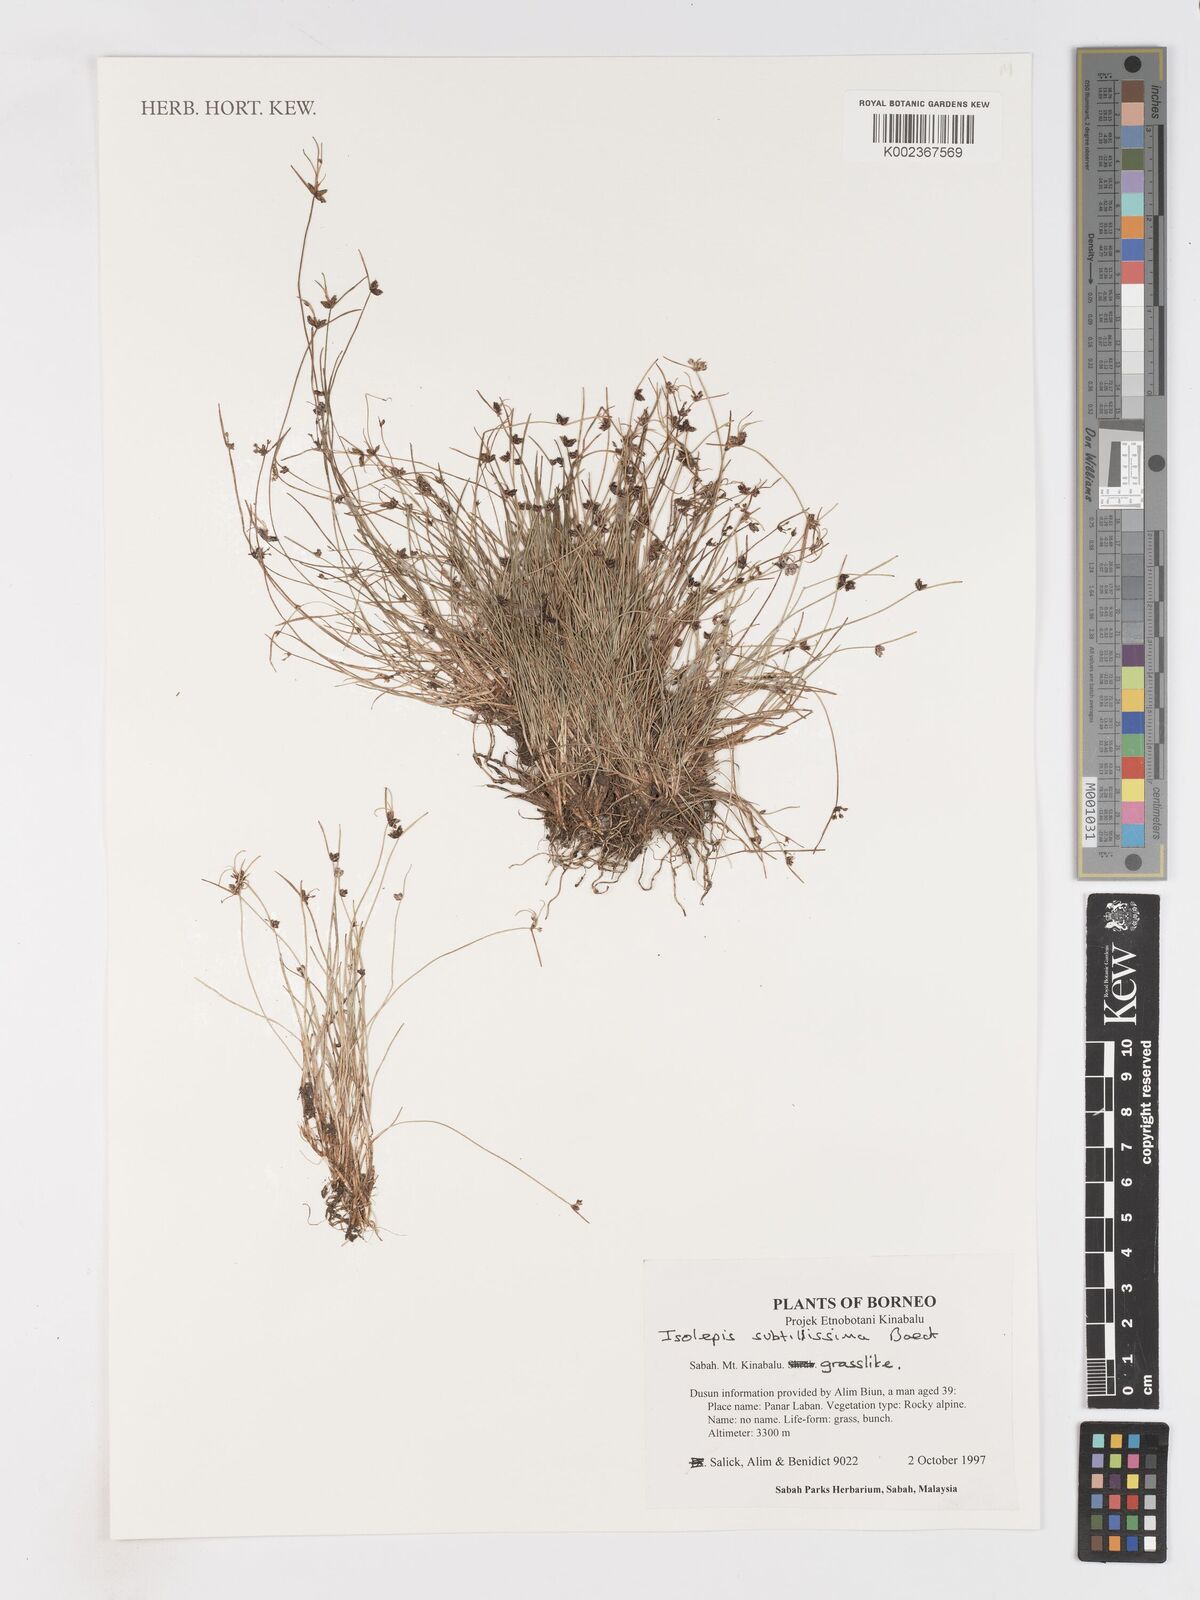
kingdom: Plantae
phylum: Tracheophyta
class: Liliopsida
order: Poales
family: Cyperaceae
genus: Isolepis
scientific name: Isolepis subtilissima
